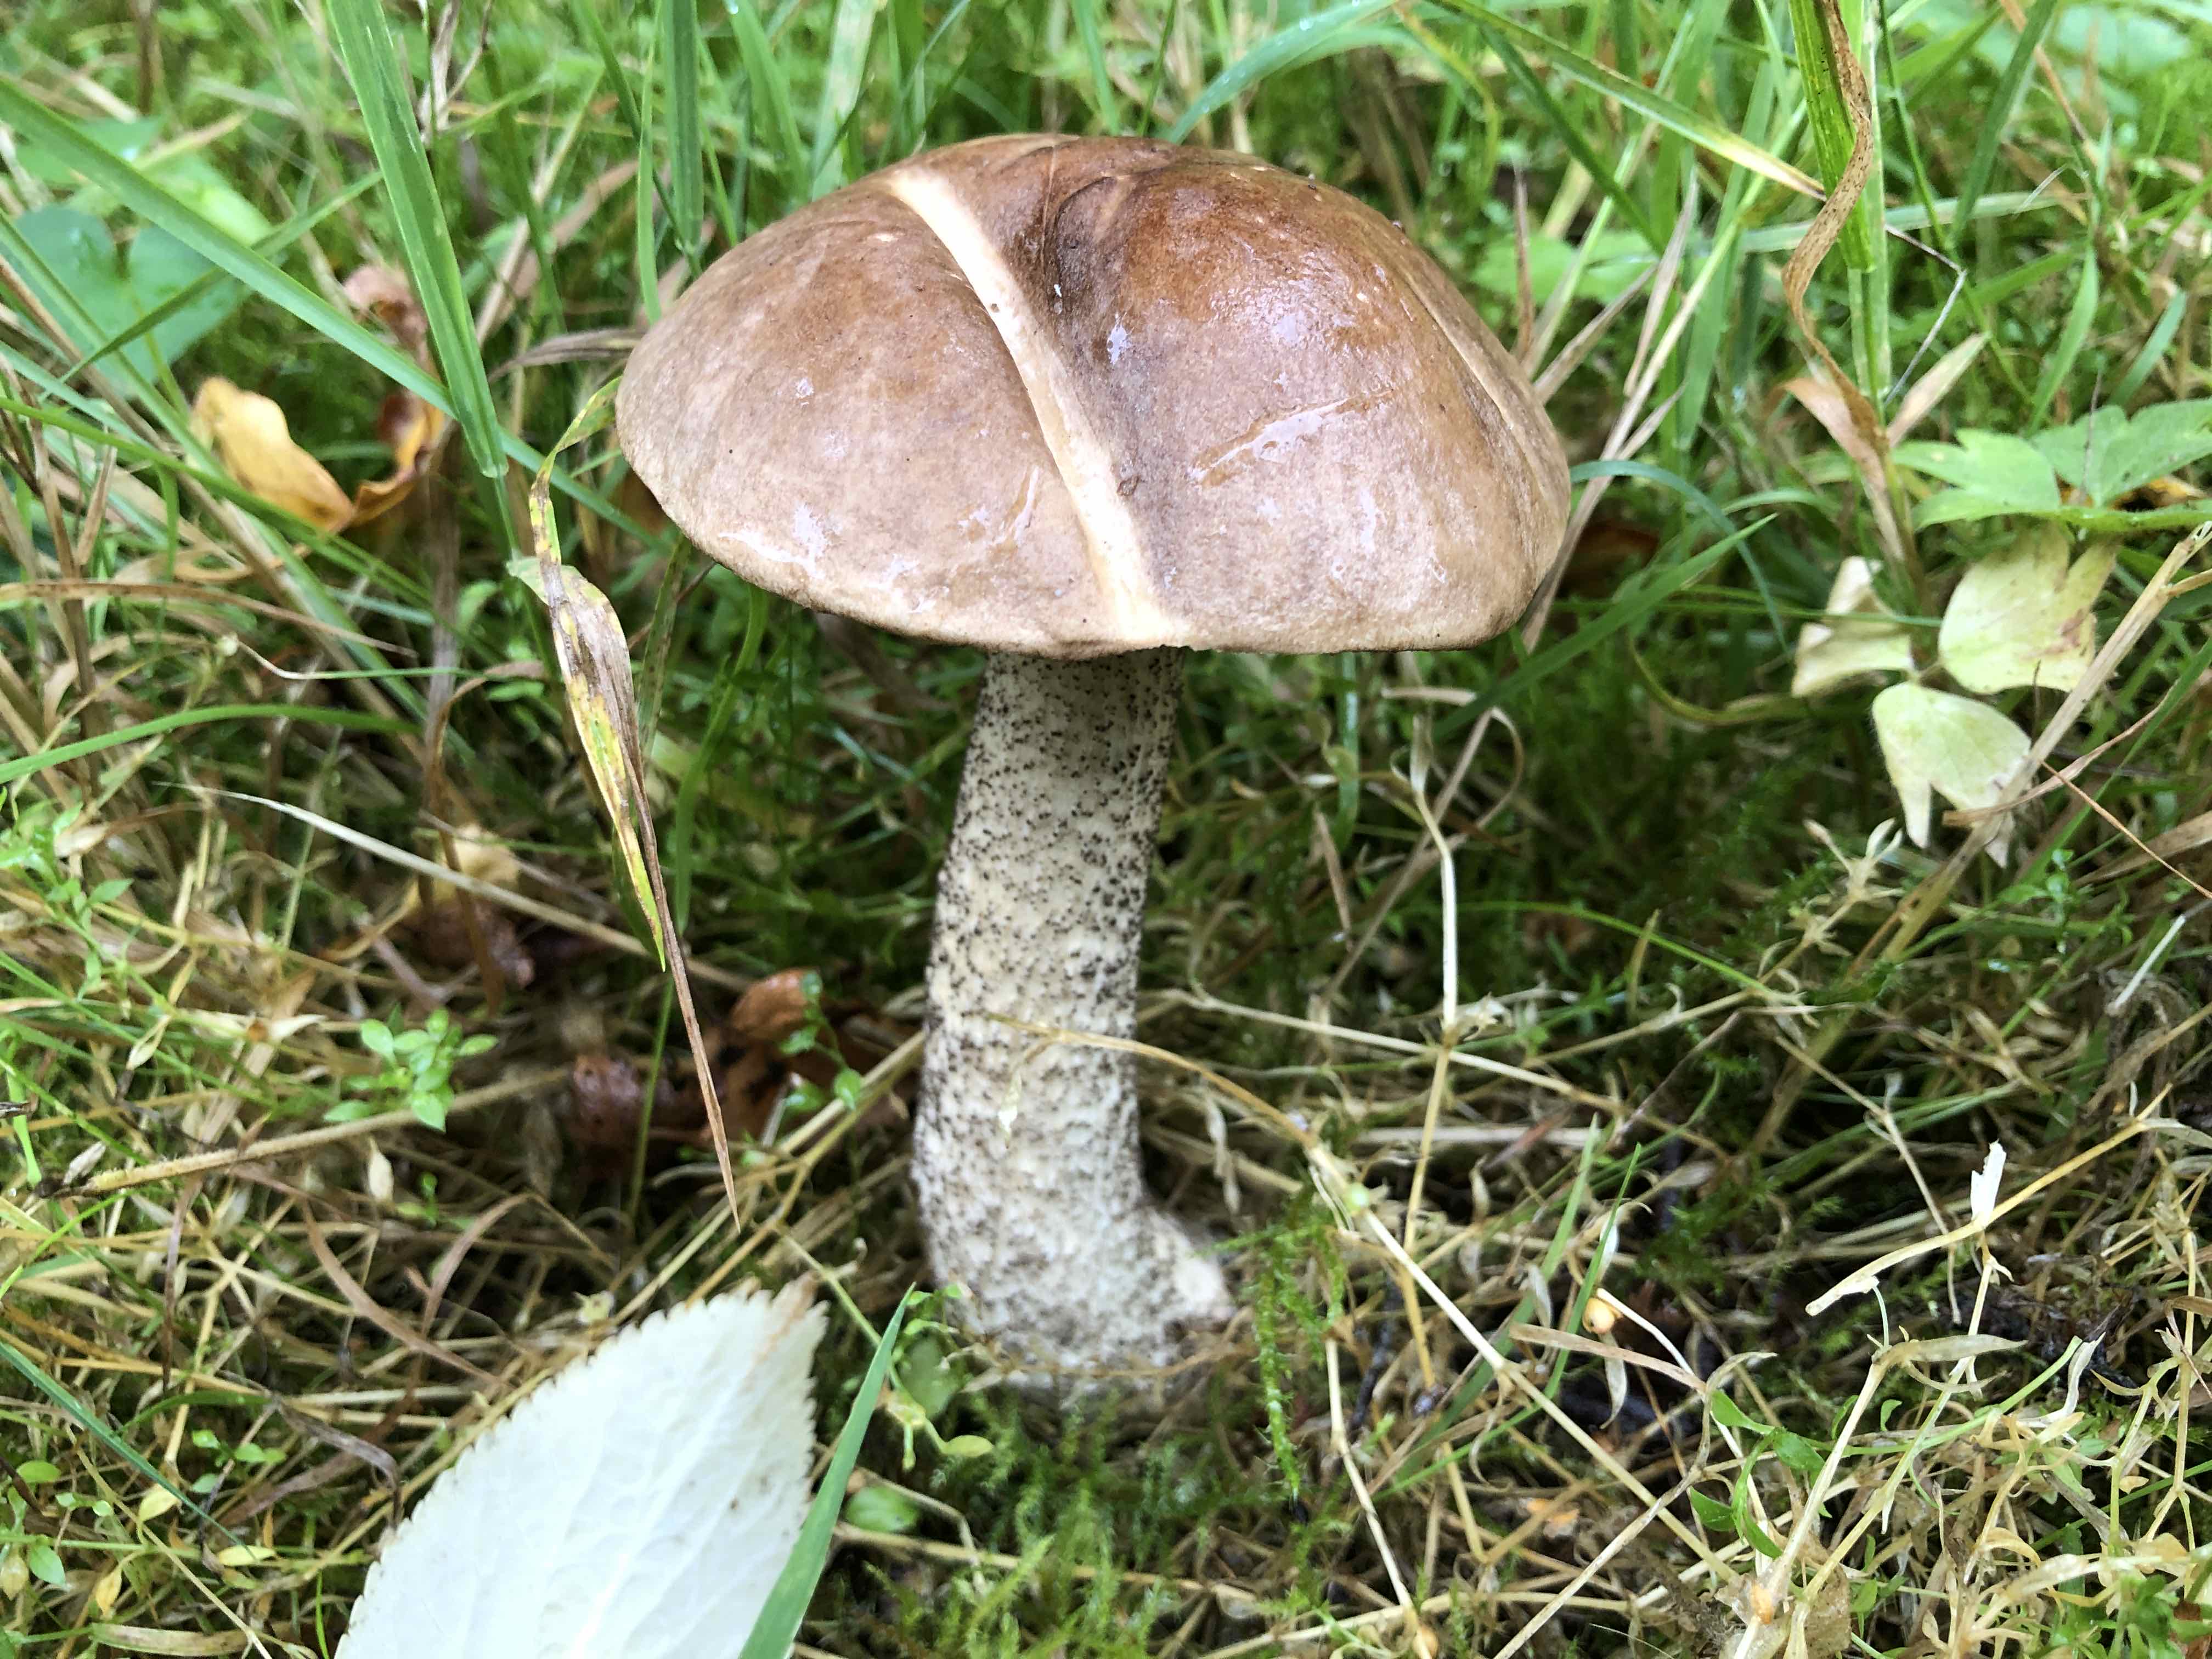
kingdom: Fungi
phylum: Basidiomycota
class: Agaricomycetes
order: Boletales
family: Boletaceae
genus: Leccinum
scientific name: Leccinum scabrum
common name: brun skælrørhat
